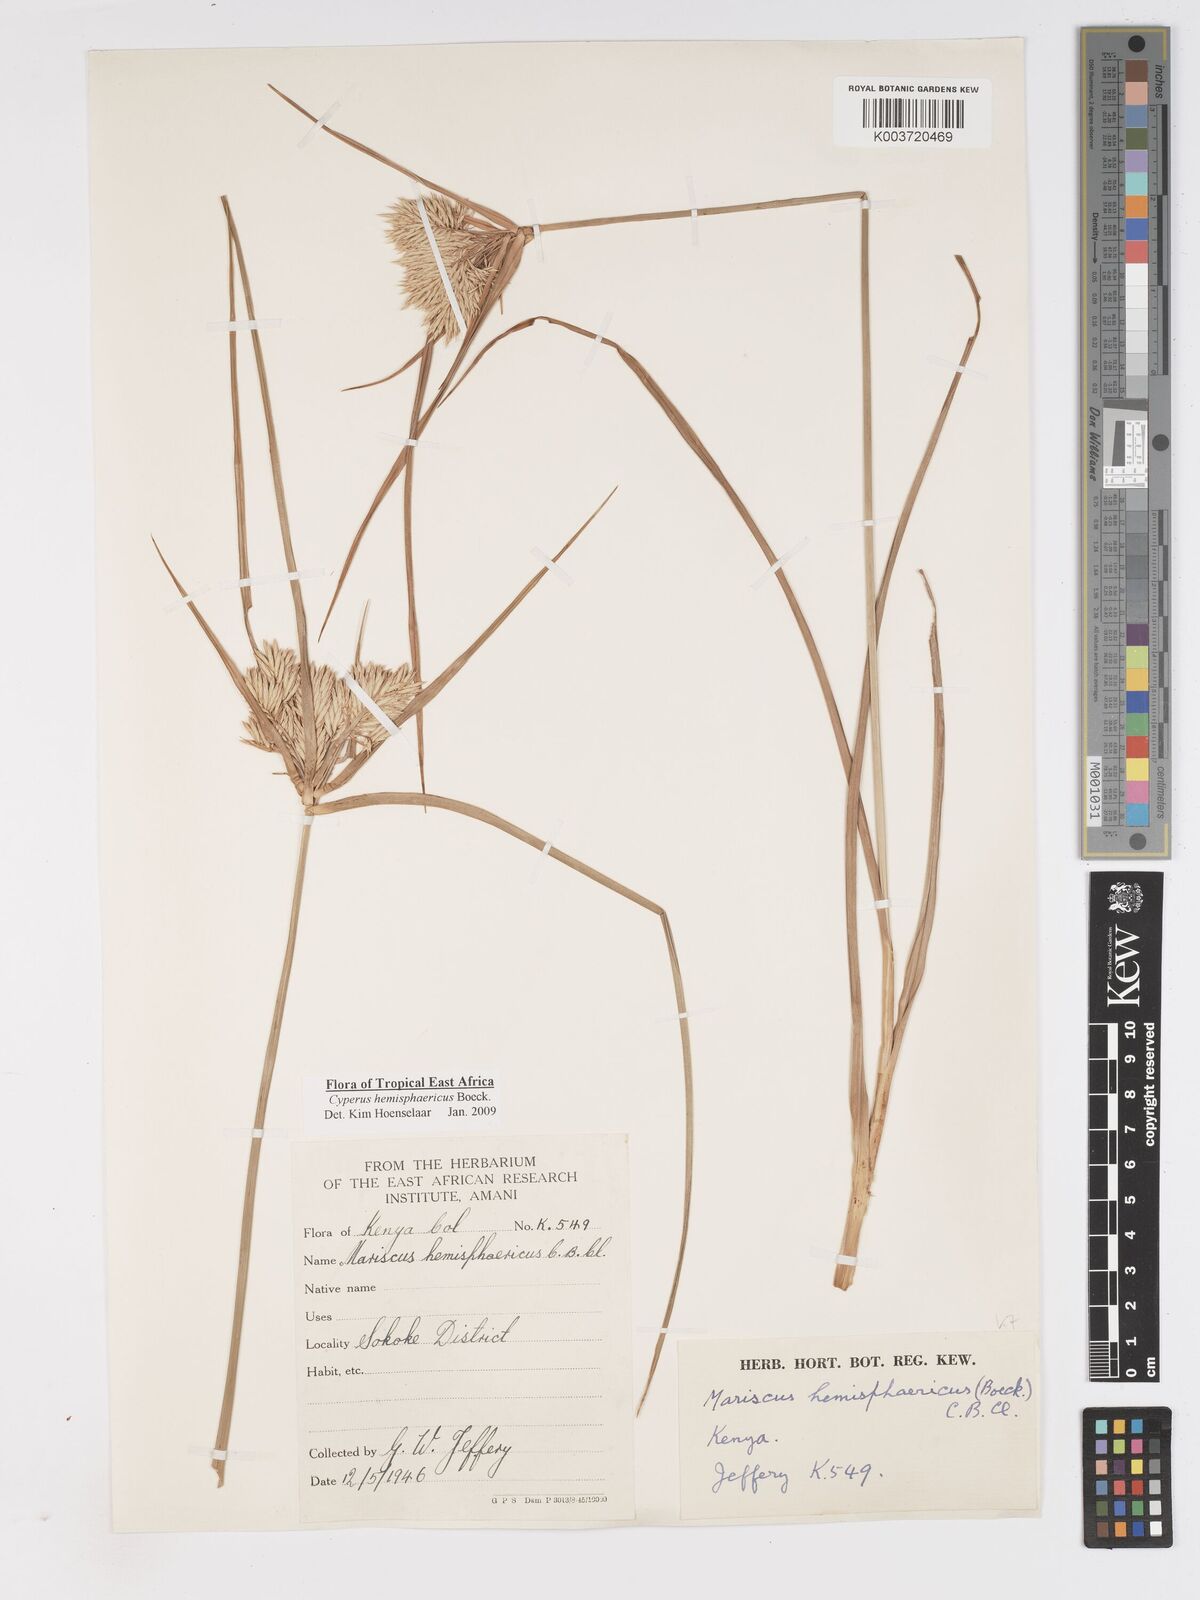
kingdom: Plantae
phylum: Tracheophyta
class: Liliopsida
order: Poales
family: Cyperaceae
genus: Cyperus
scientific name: Cyperus hemisphaericus
